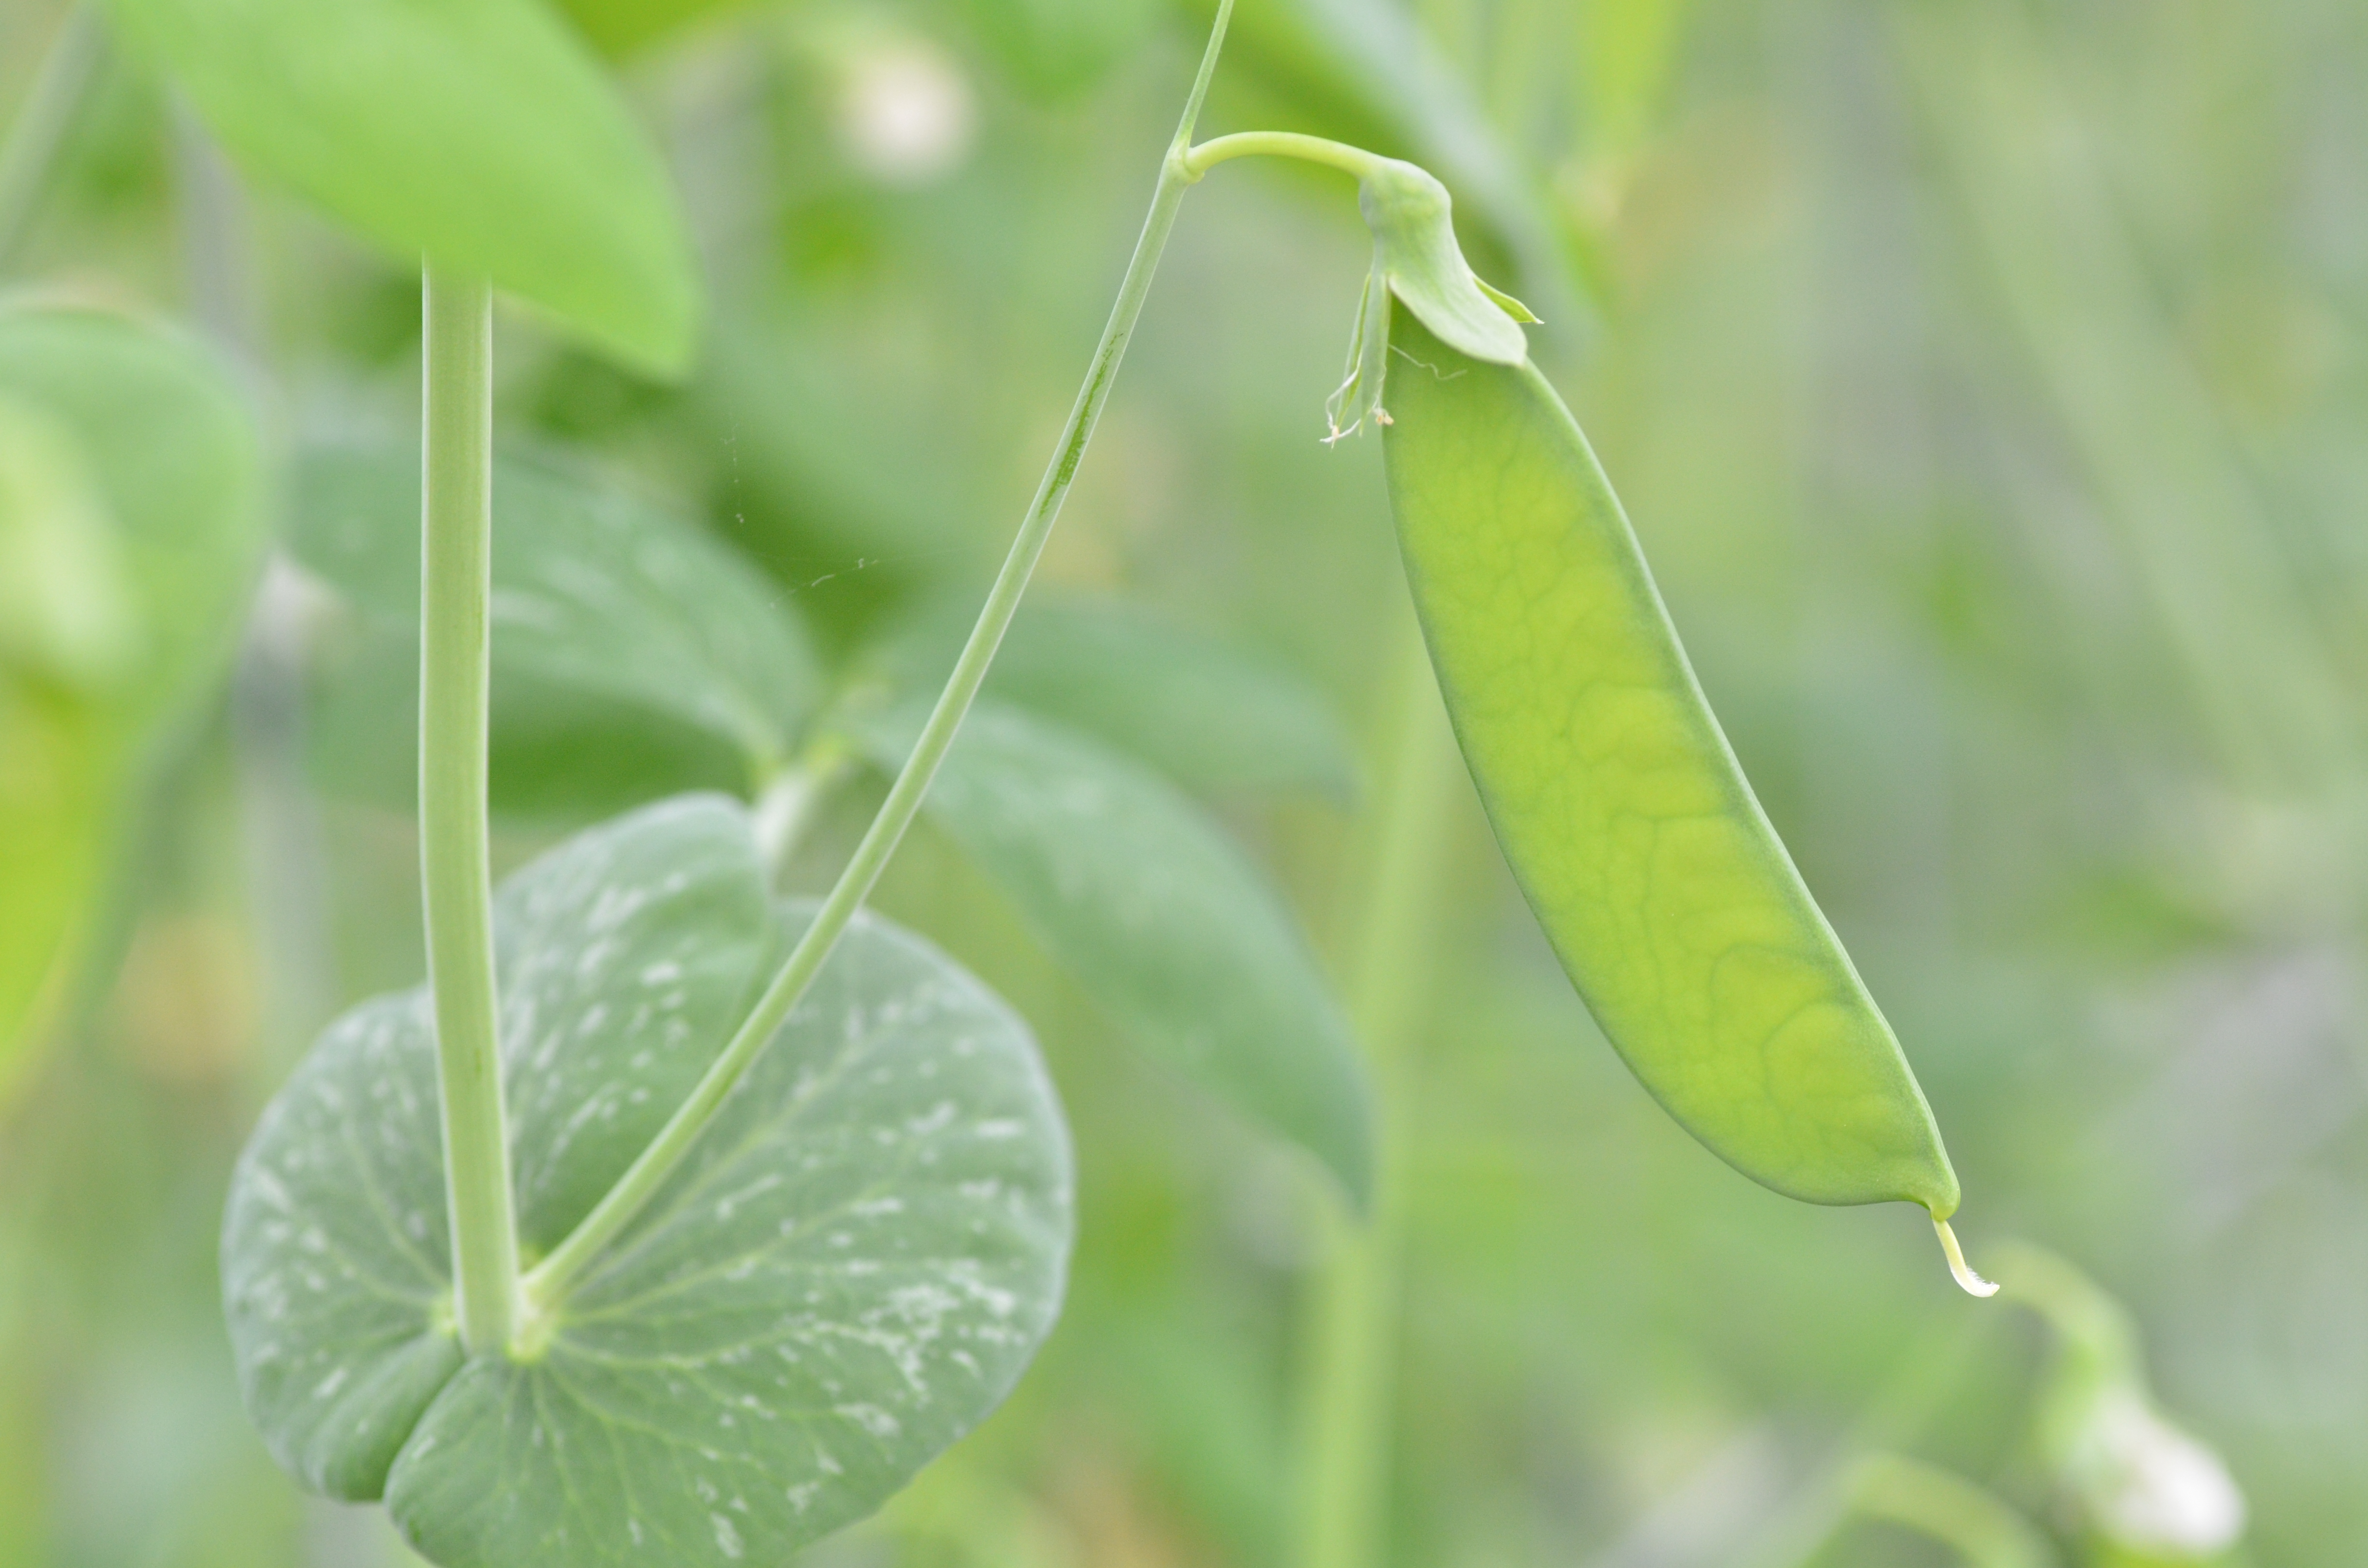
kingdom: Plantae
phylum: Tracheophyta
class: Magnoliopsida
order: Fabales
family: Fabaceae
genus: Lathyrus
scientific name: Lathyrus oleraceus
